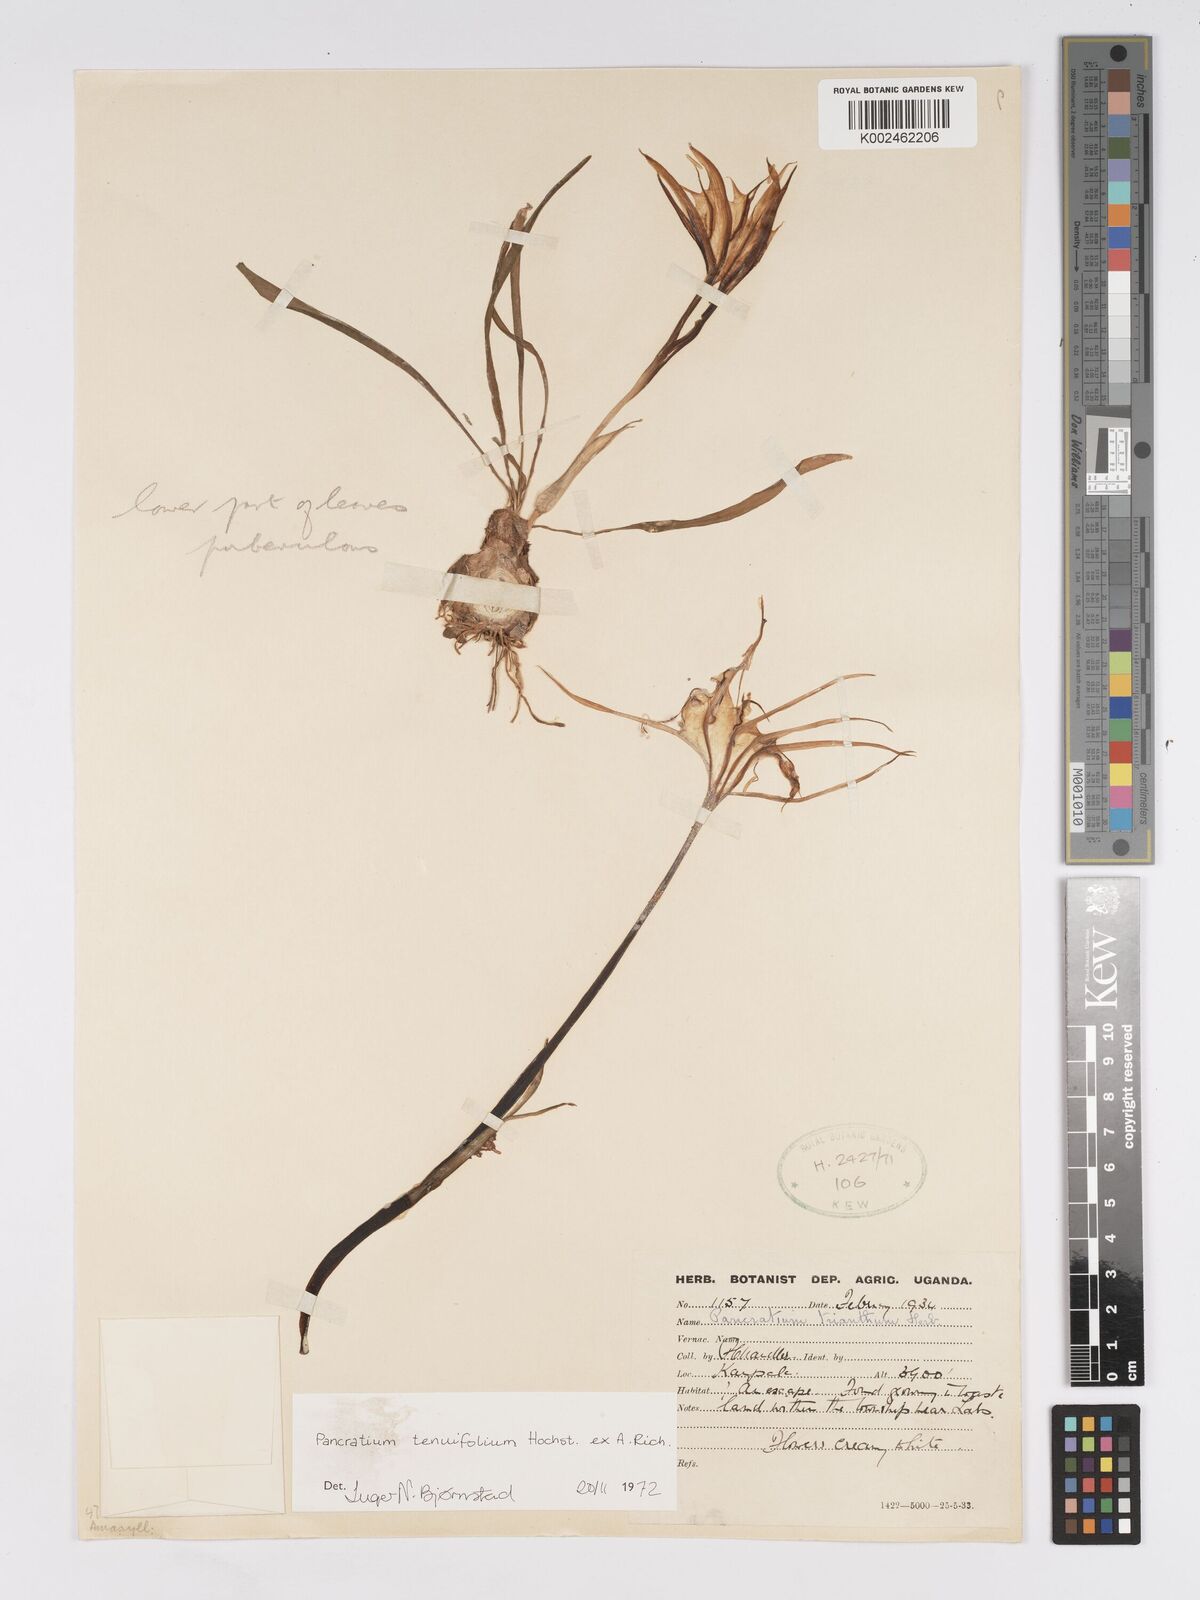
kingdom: Plantae
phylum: Tracheophyta
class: Liliopsida
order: Asparagales
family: Amaryllidaceae
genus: Pancratium
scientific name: Pancratium tenuifolium
